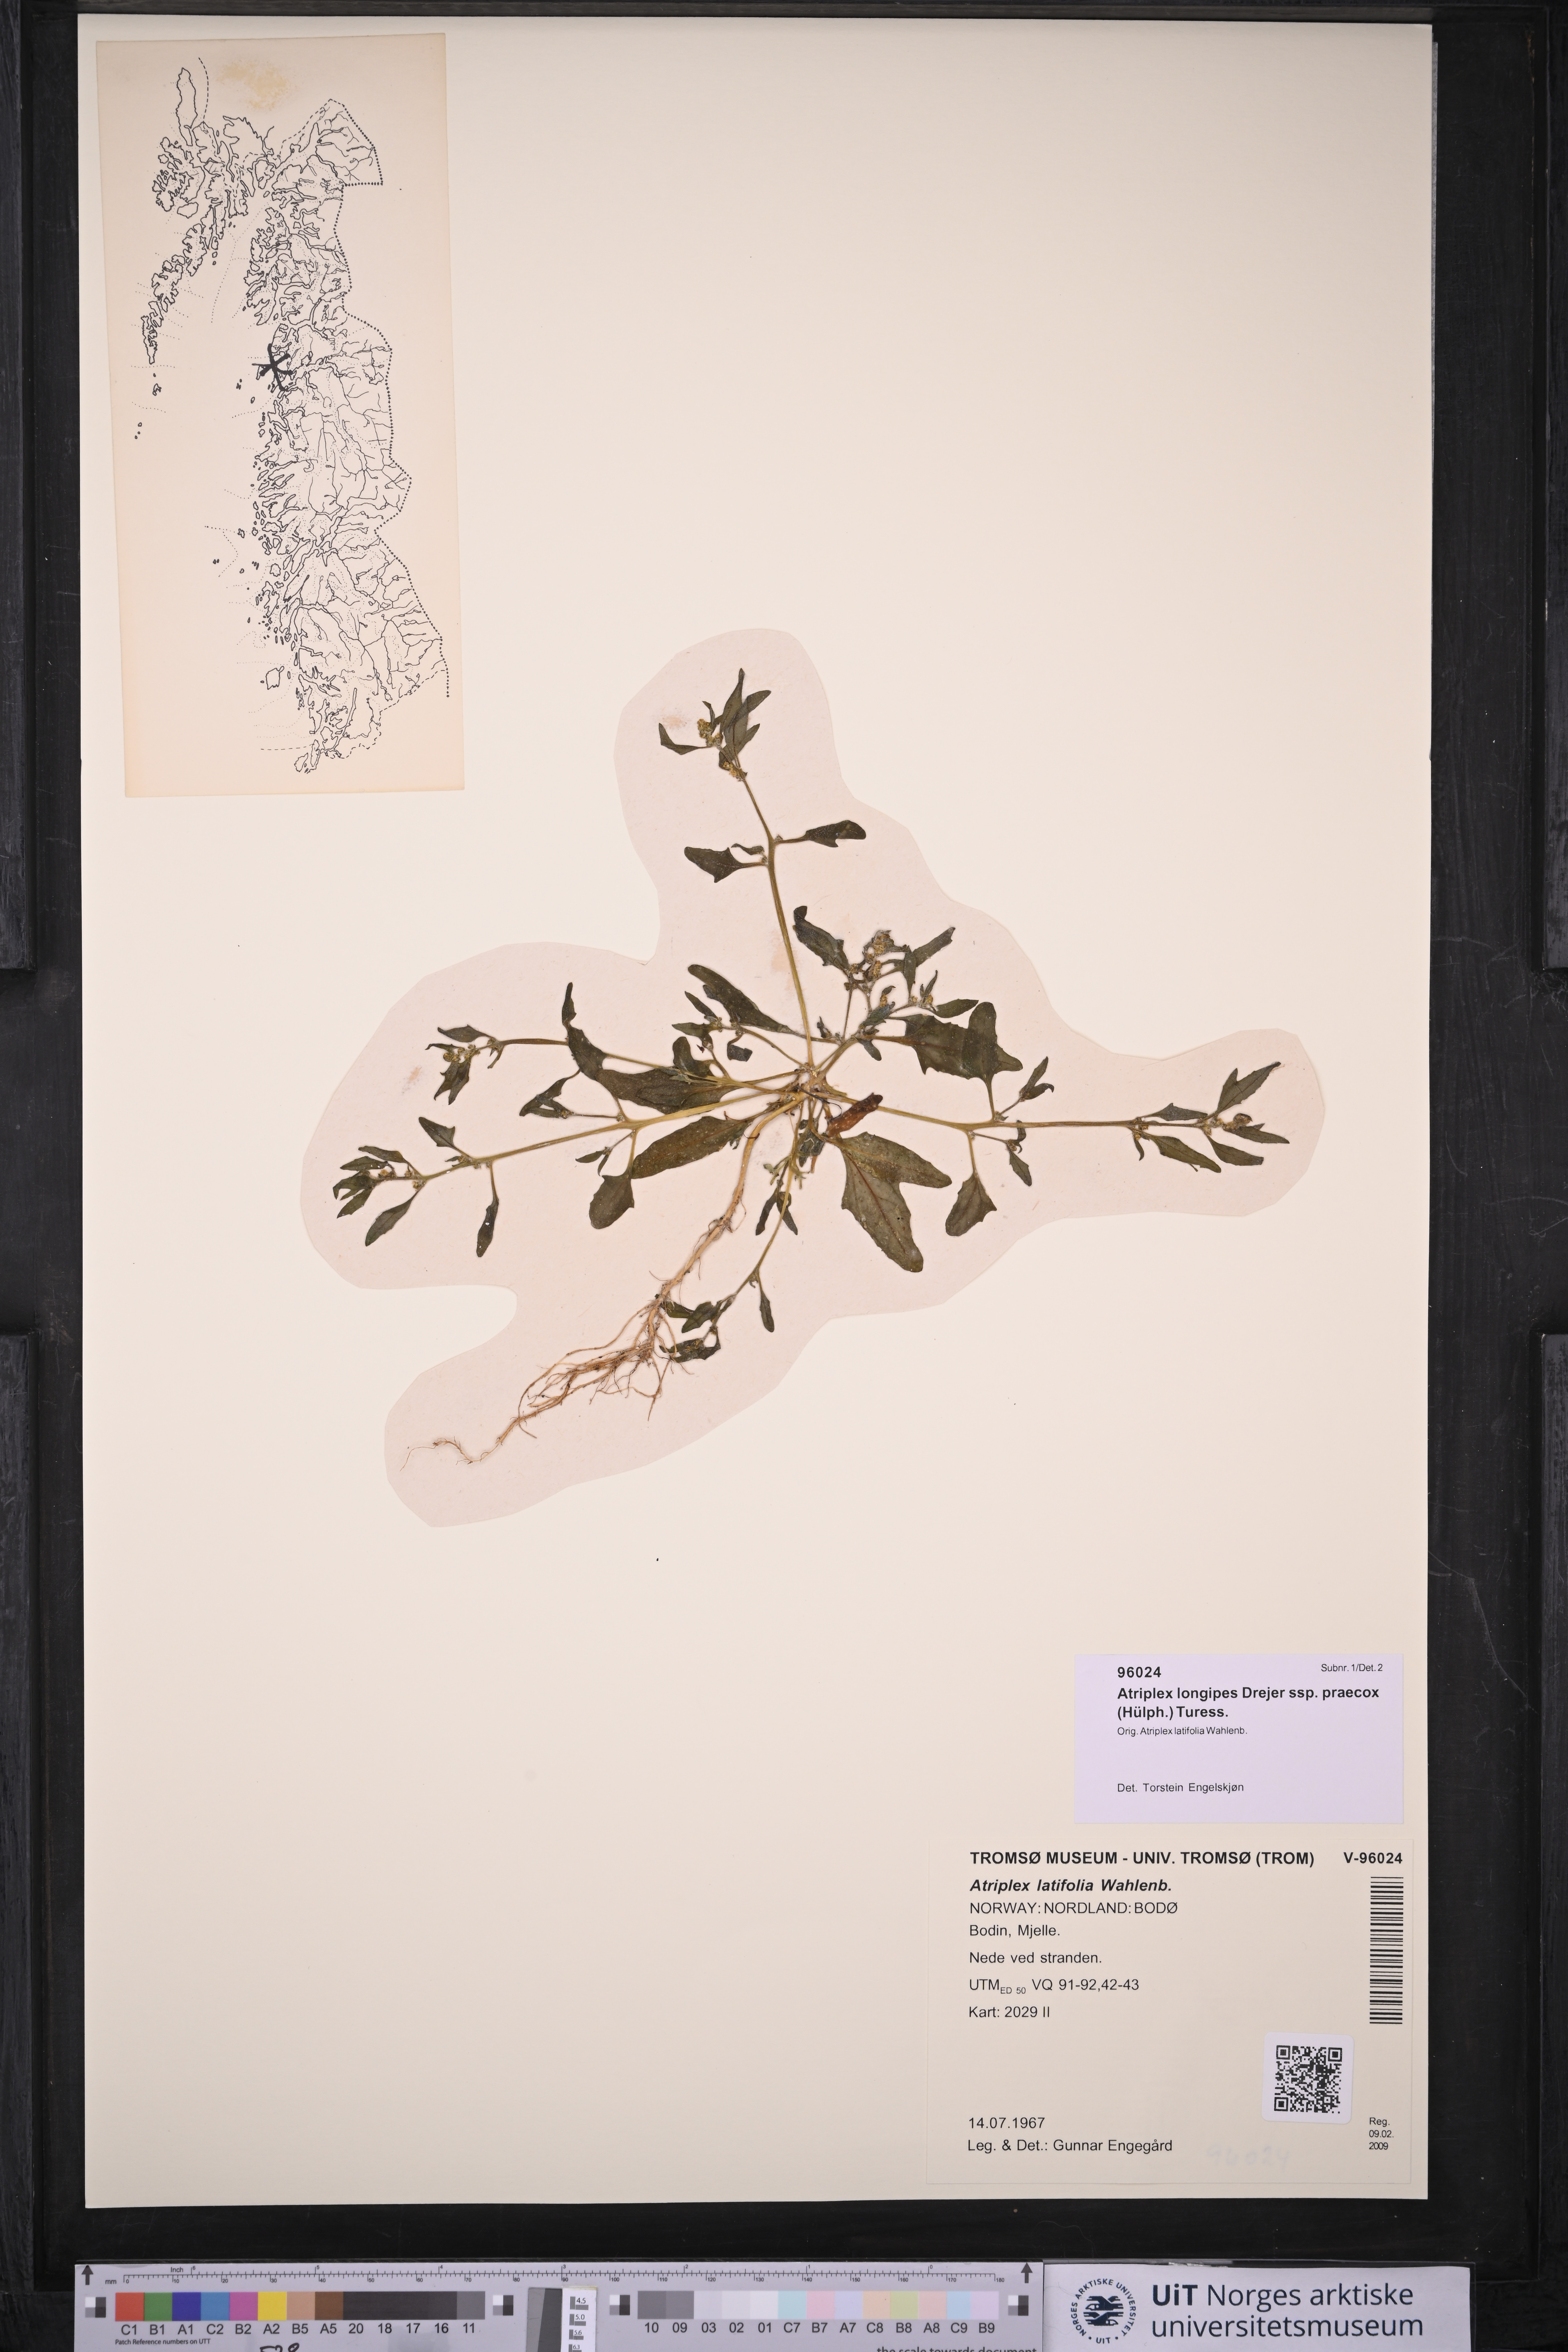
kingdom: Plantae
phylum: Tracheophyta
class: Magnoliopsida
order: Caryophyllales
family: Amaranthaceae
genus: Atriplex
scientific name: Atriplex praecox
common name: Early orache
